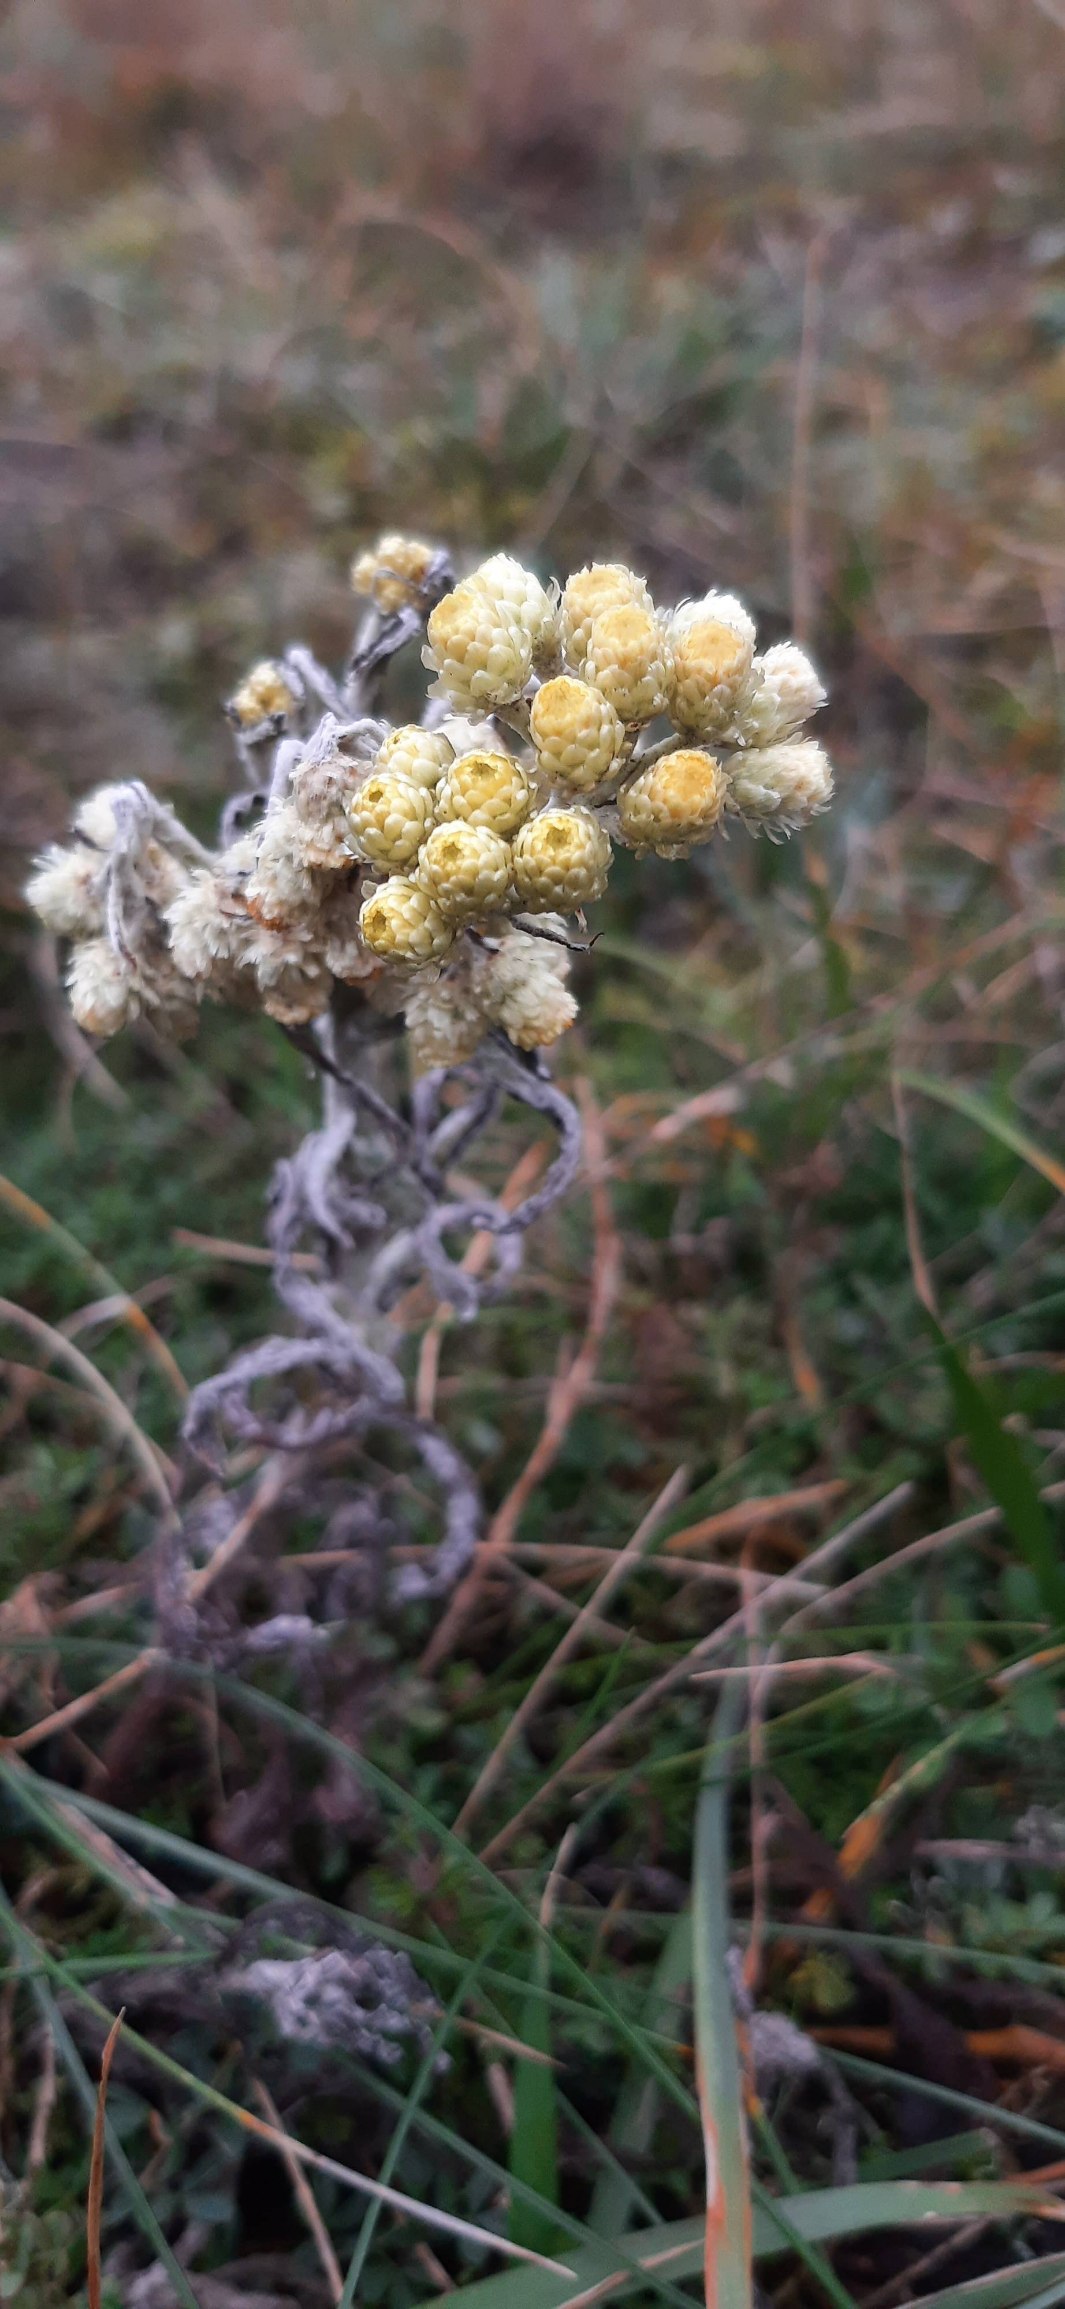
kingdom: Plantae
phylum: Tracheophyta
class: Magnoliopsida
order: Asterales
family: Asteraceae
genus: Helichrysum
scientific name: Helichrysum arenarium
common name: Gul evighedsblomst
